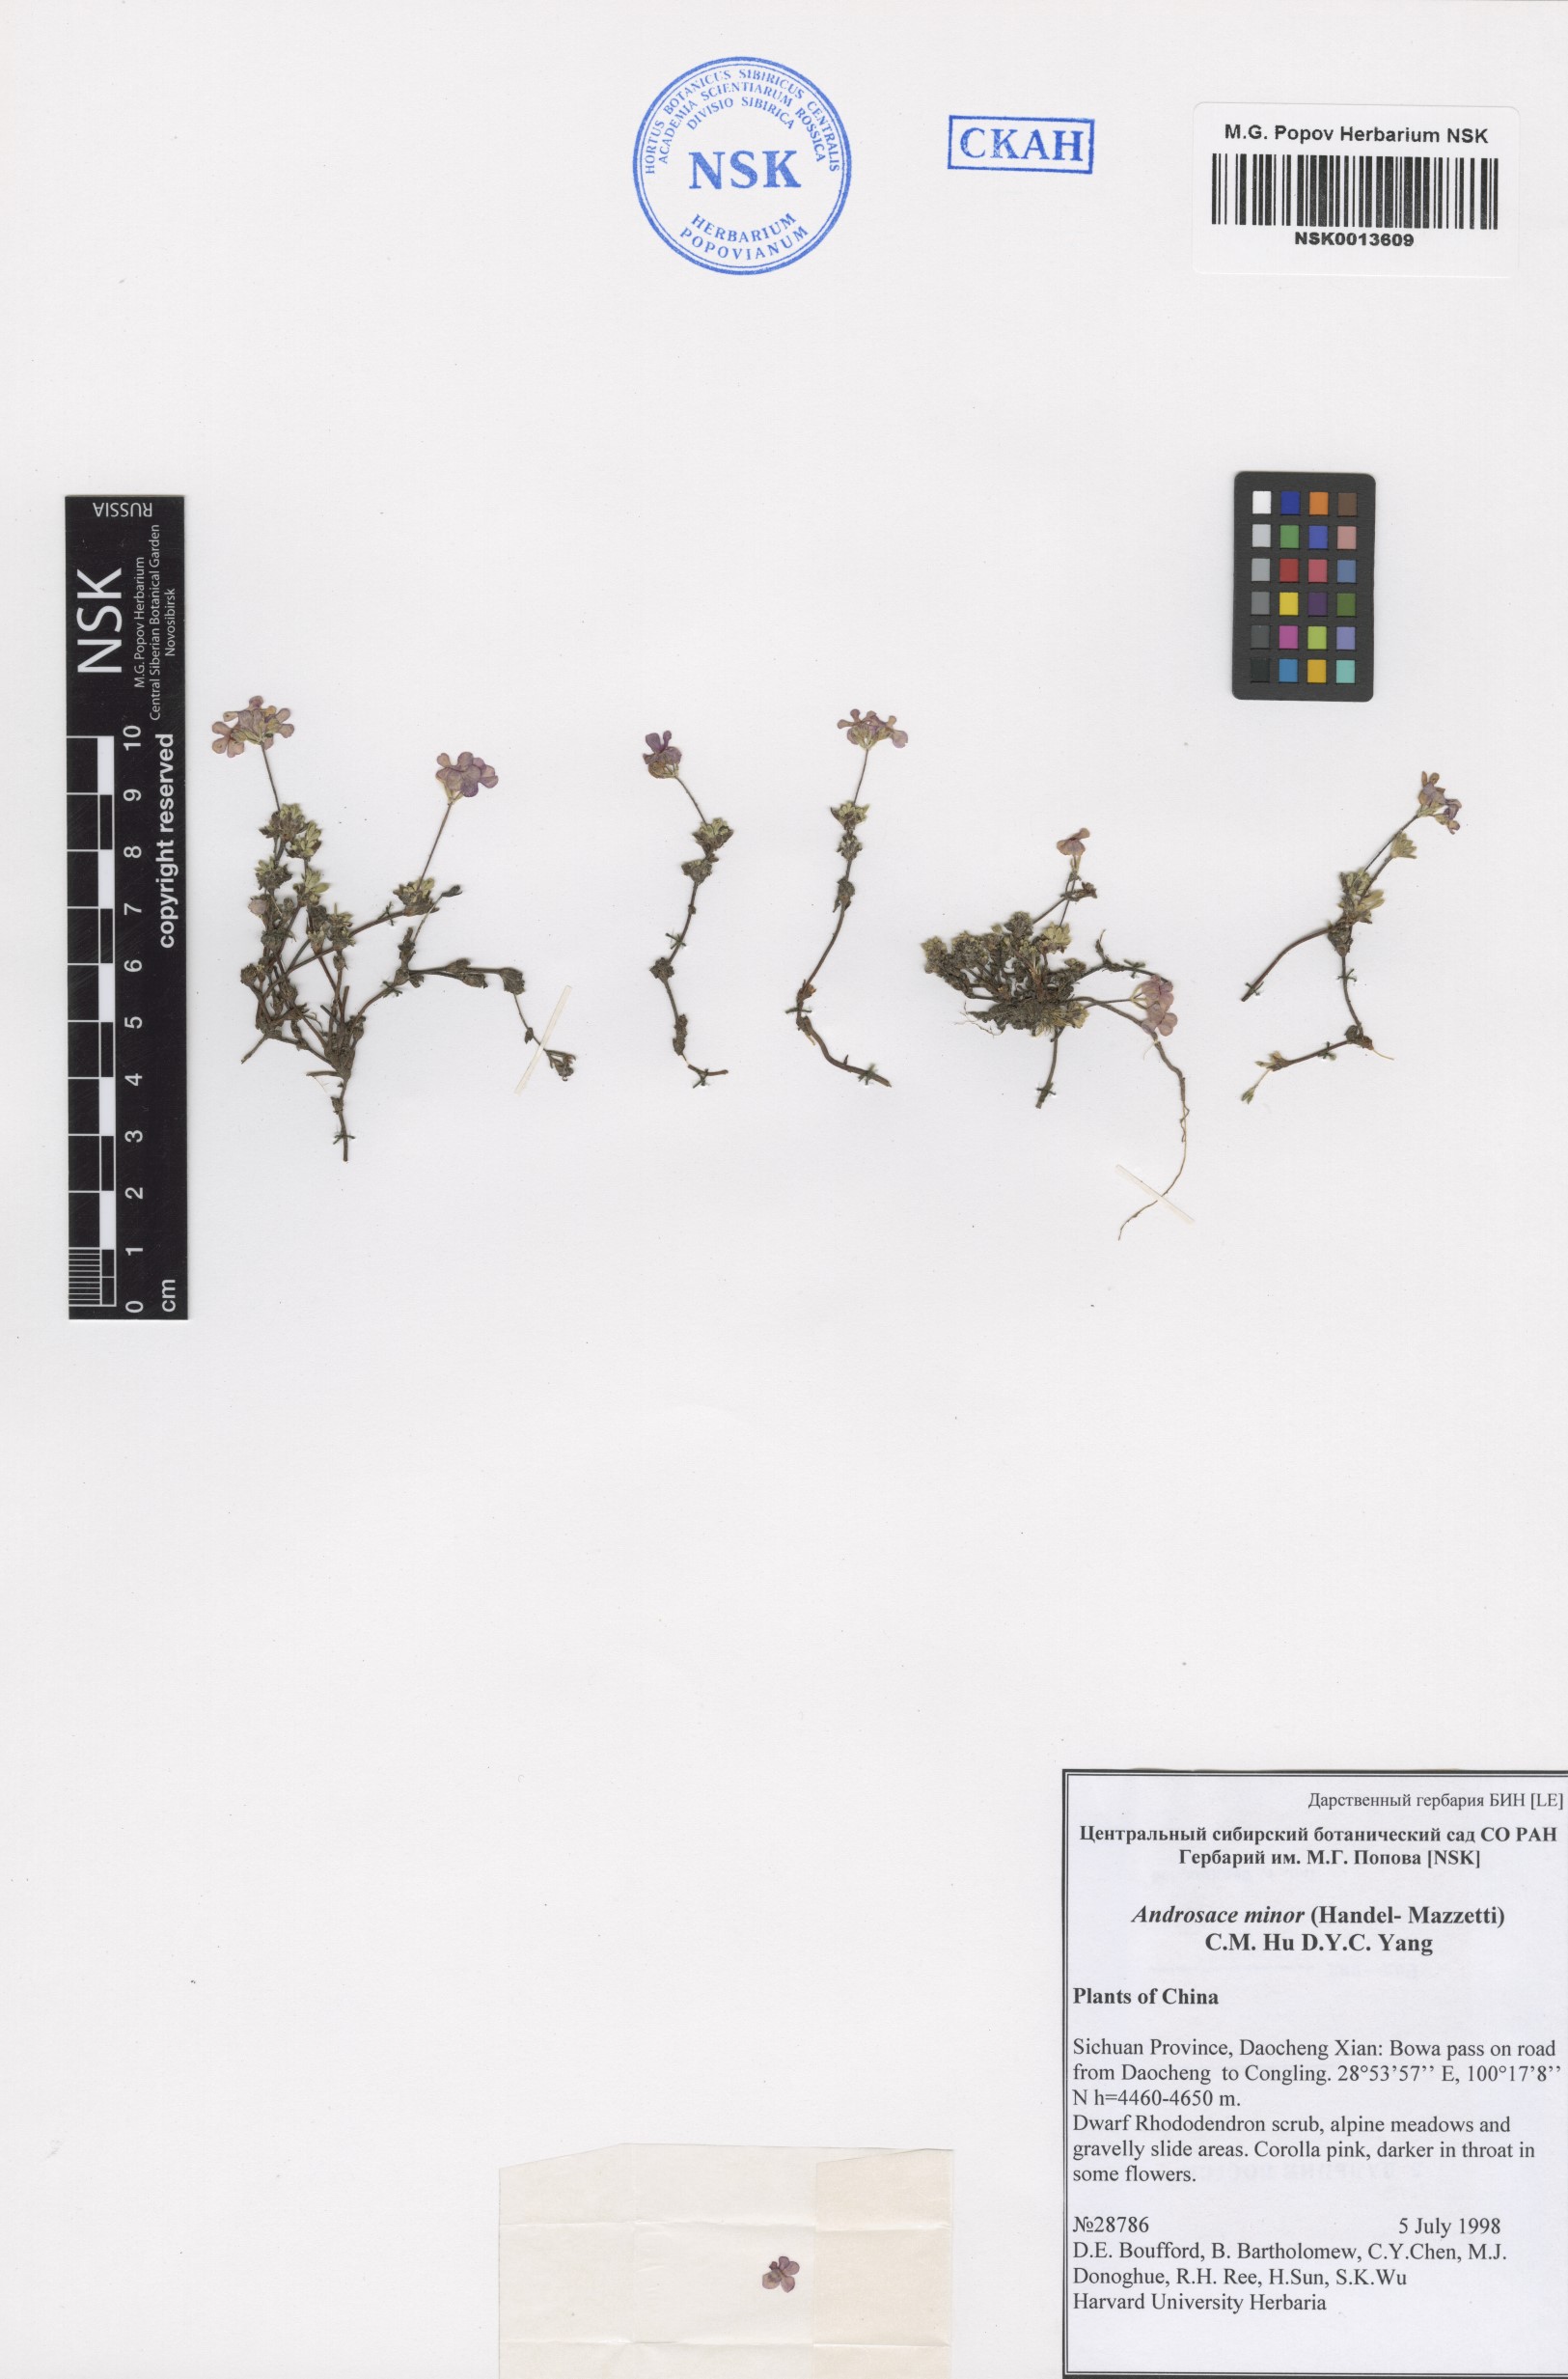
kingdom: Plantae
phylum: Tracheophyta
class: Magnoliopsida
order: Ericales
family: Primulaceae
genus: Androsace
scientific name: Androsace minor
